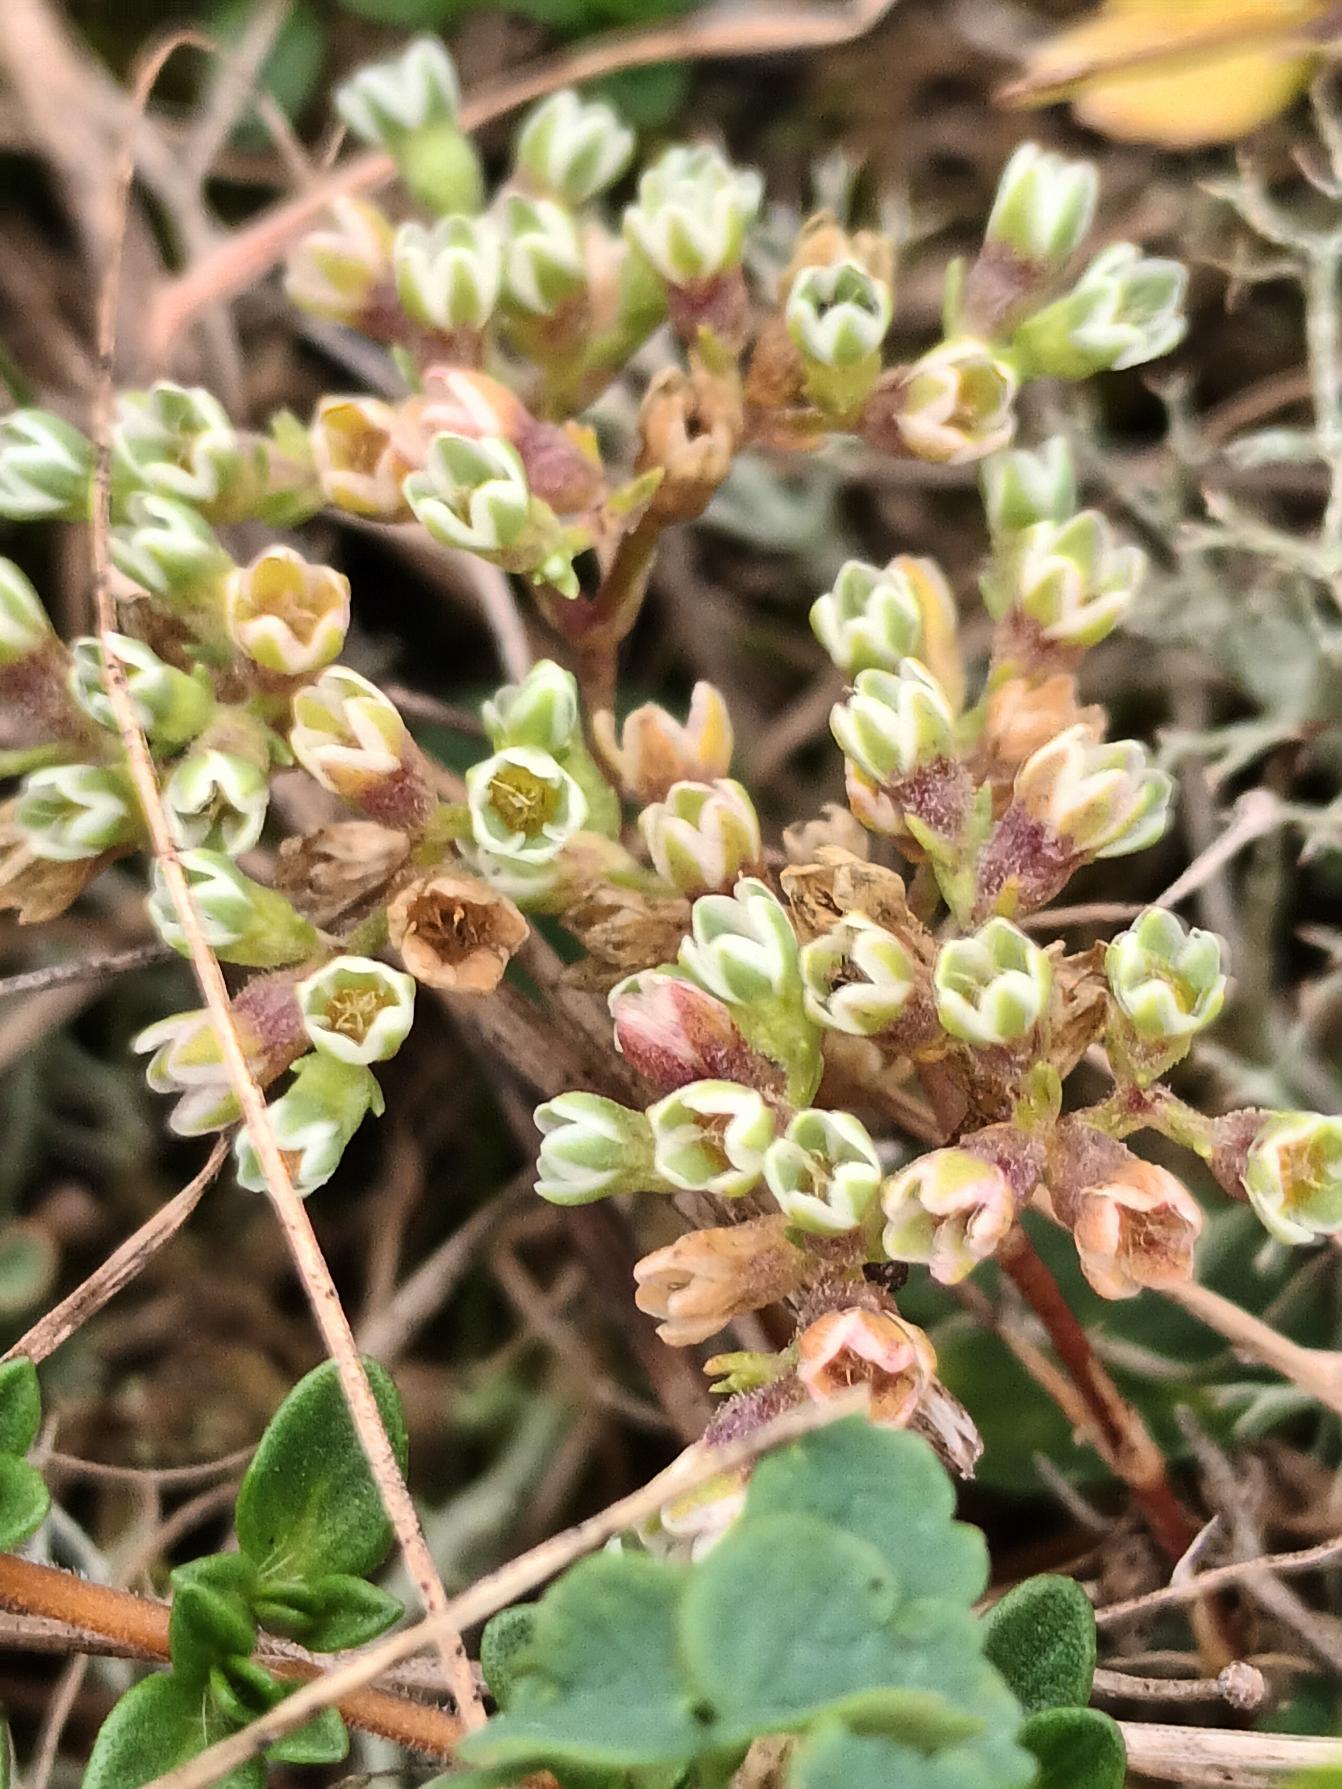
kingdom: Plantae
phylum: Tracheophyta
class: Magnoliopsida
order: Caryophyllales
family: Caryophyllaceae
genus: Scleranthus
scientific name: Scleranthus perennis
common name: Flerårig knavel
